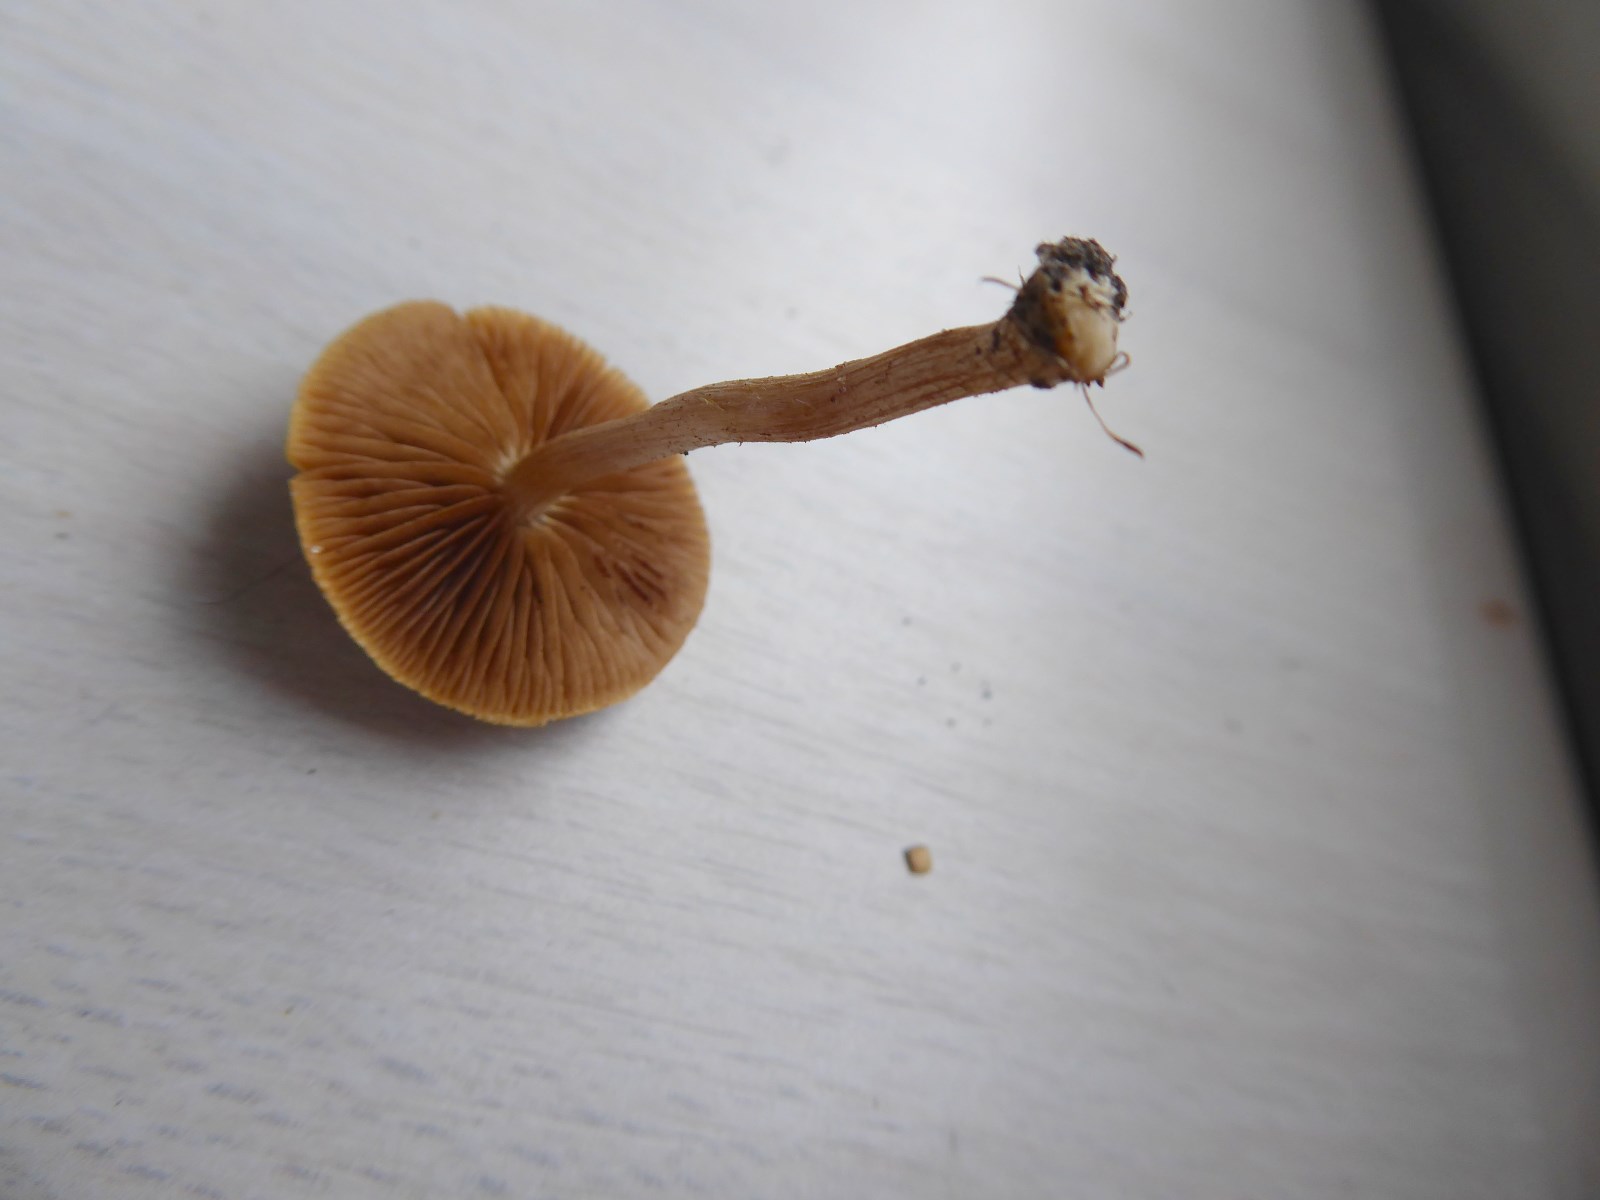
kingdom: Fungi
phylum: Basidiomycota
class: Agaricomycetes
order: Agaricales
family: Strophariaceae
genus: Agrocybe
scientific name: Agrocybe pediades
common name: almindelig agerhat
